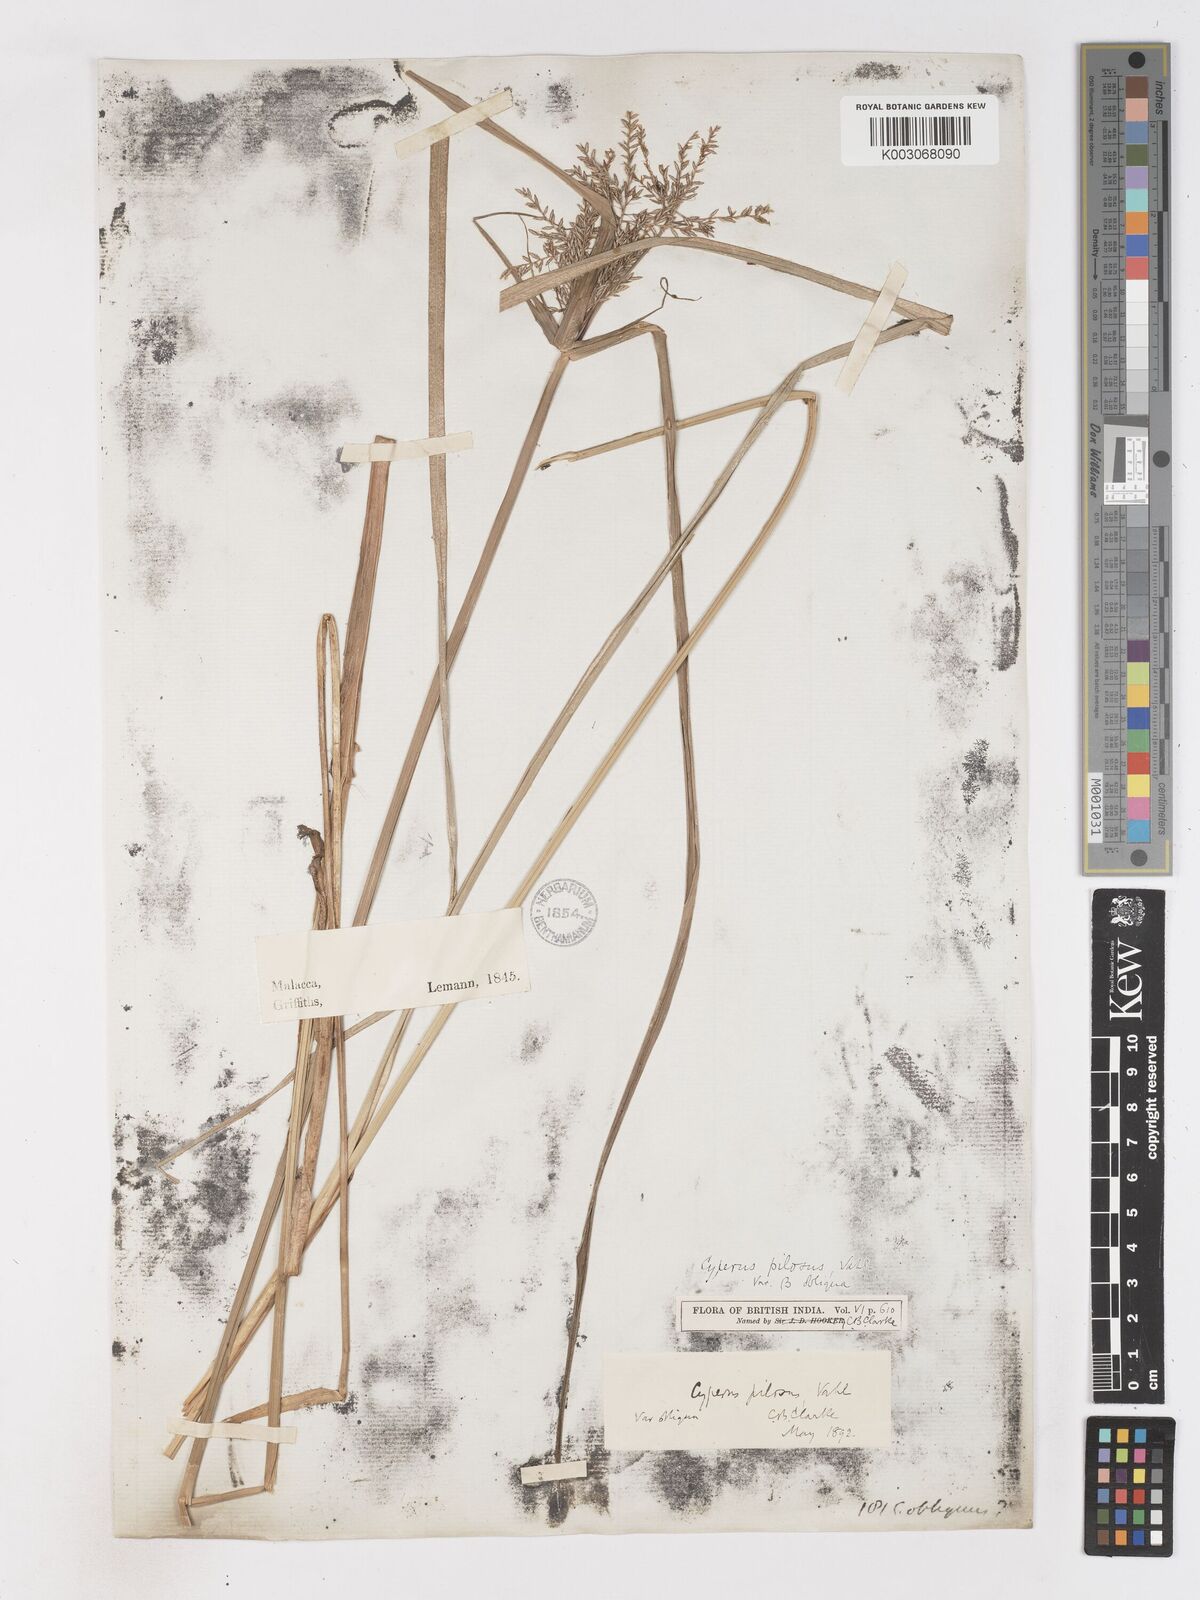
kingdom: Plantae
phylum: Tracheophyta
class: Liliopsida
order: Poales
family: Cyperaceae
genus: Cyperus
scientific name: Cyperus pilosus
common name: Fuzzy flatsedge
